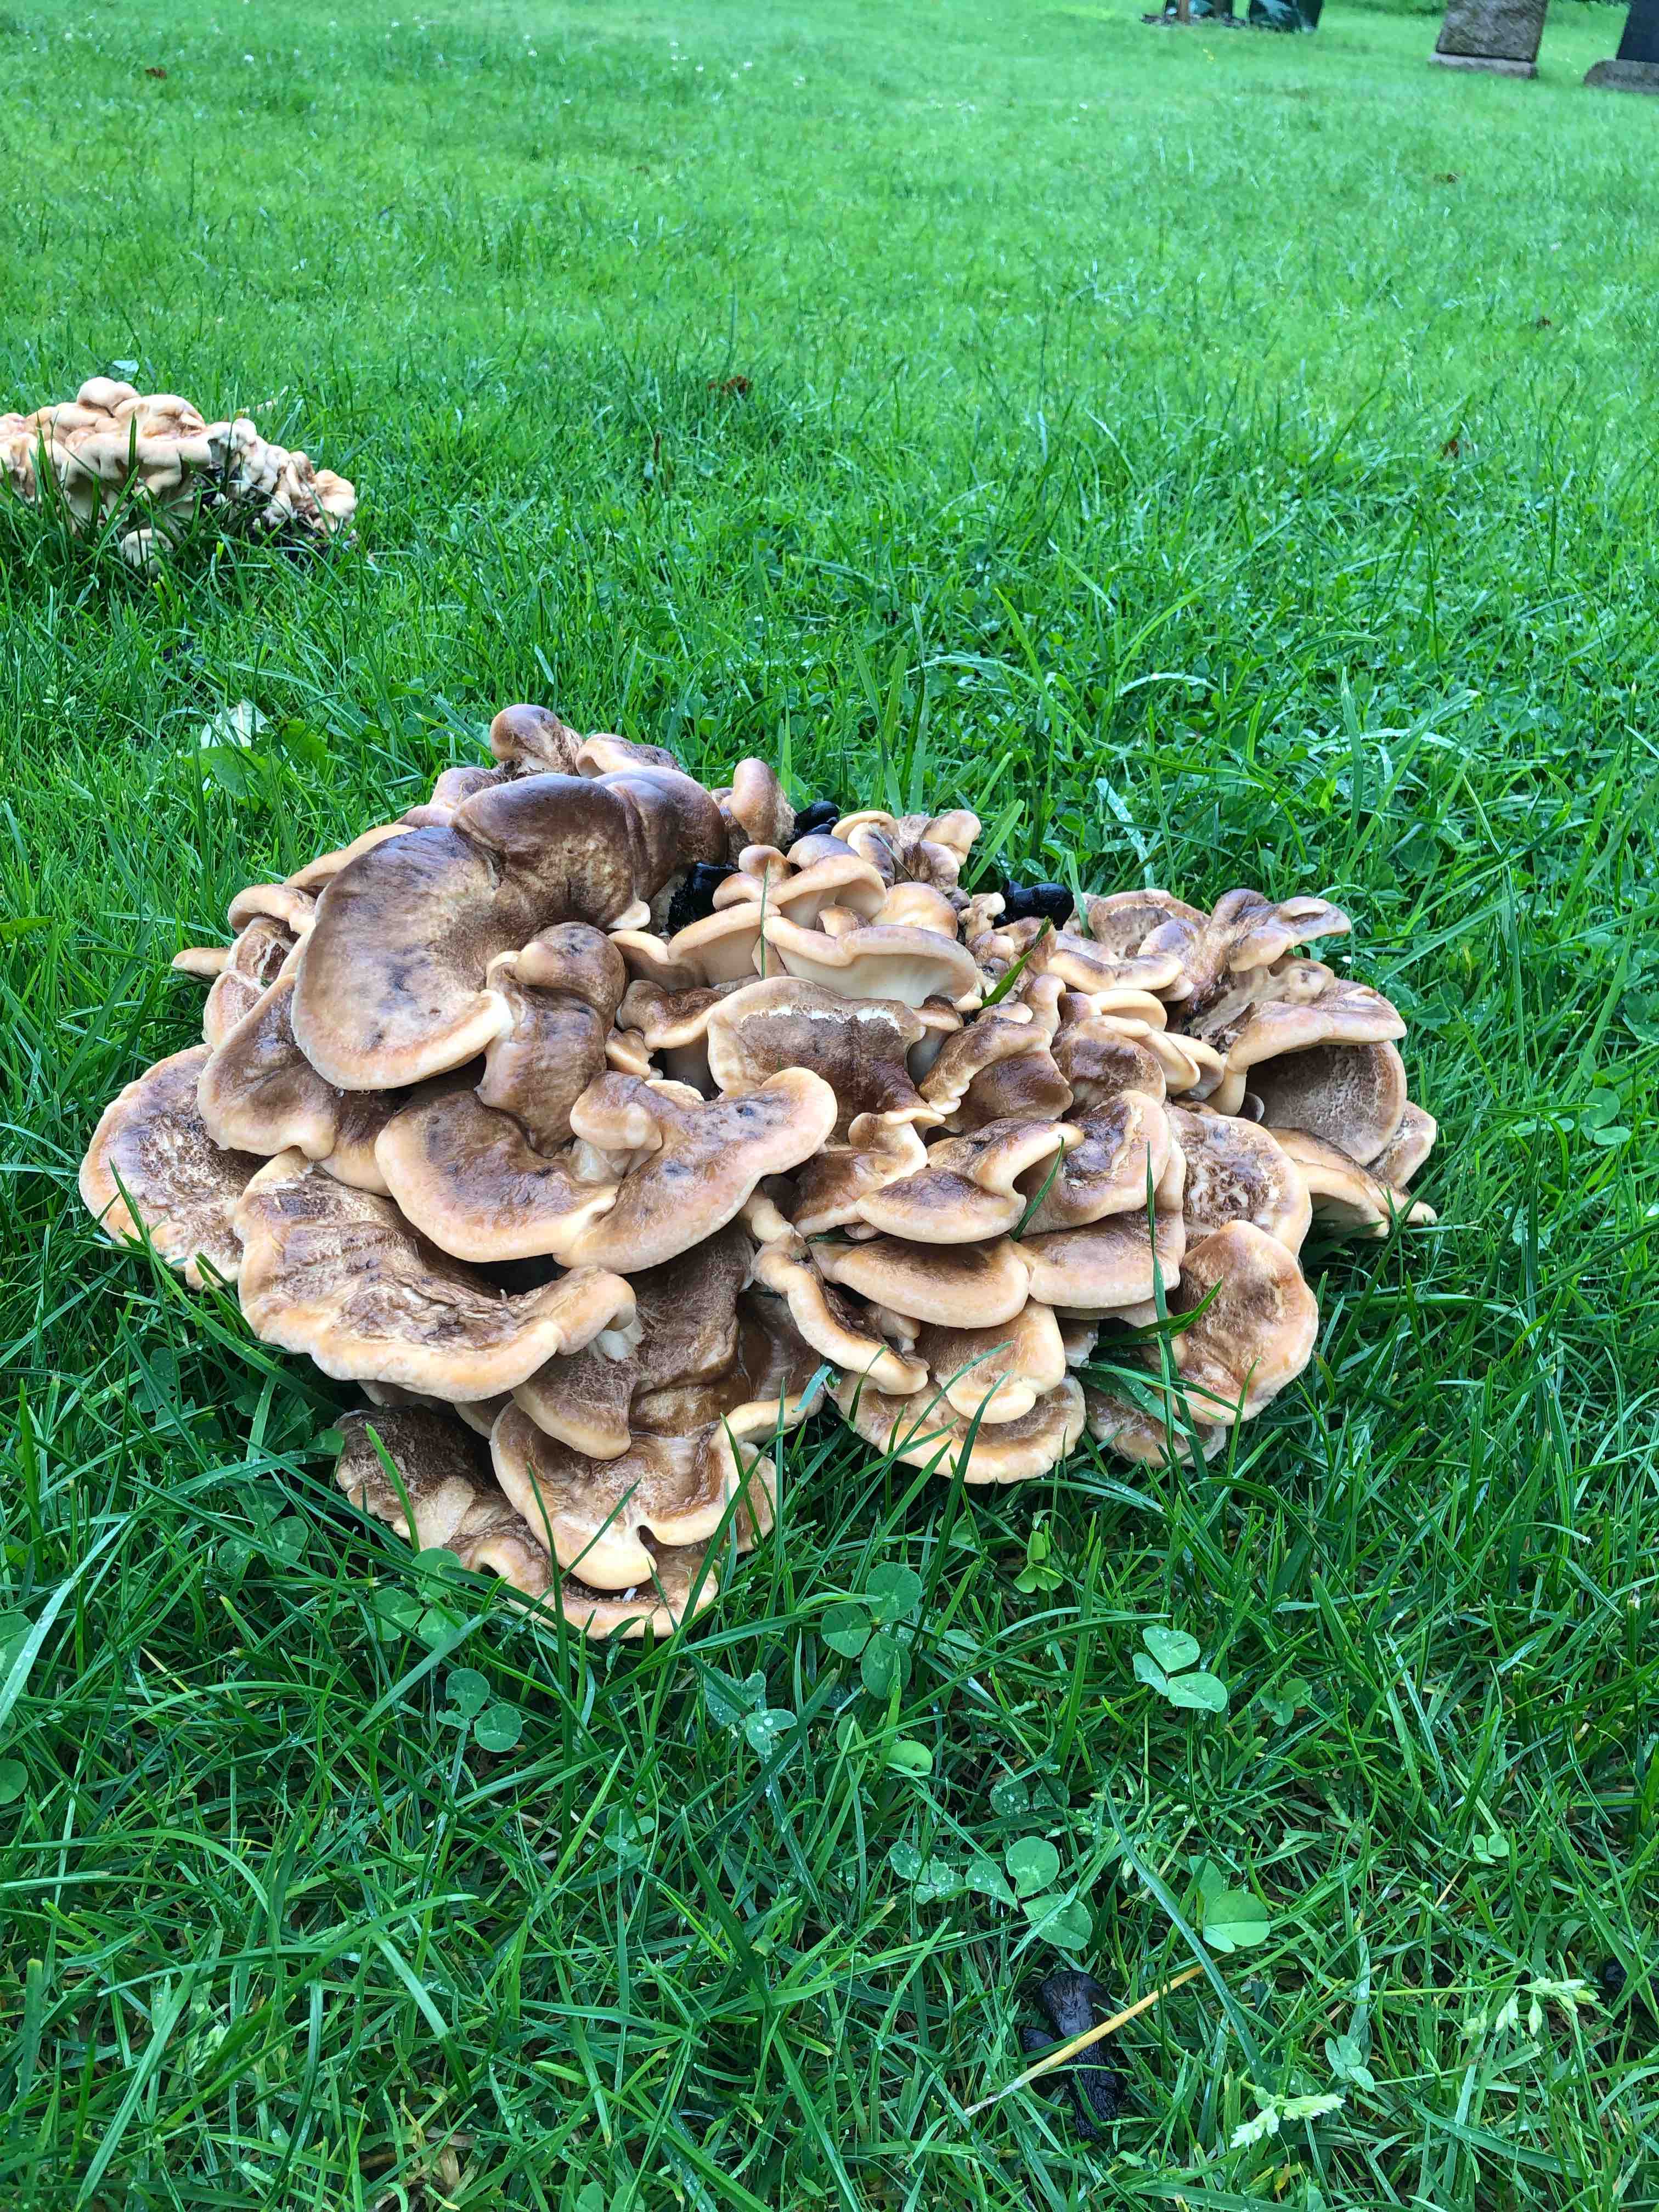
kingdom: Fungi
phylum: Basidiomycota
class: Agaricomycetes
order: Polyporales
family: Meripilaceae
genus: Meripilus
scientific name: Meripilus giganteus
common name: kæmpeporesvamp
